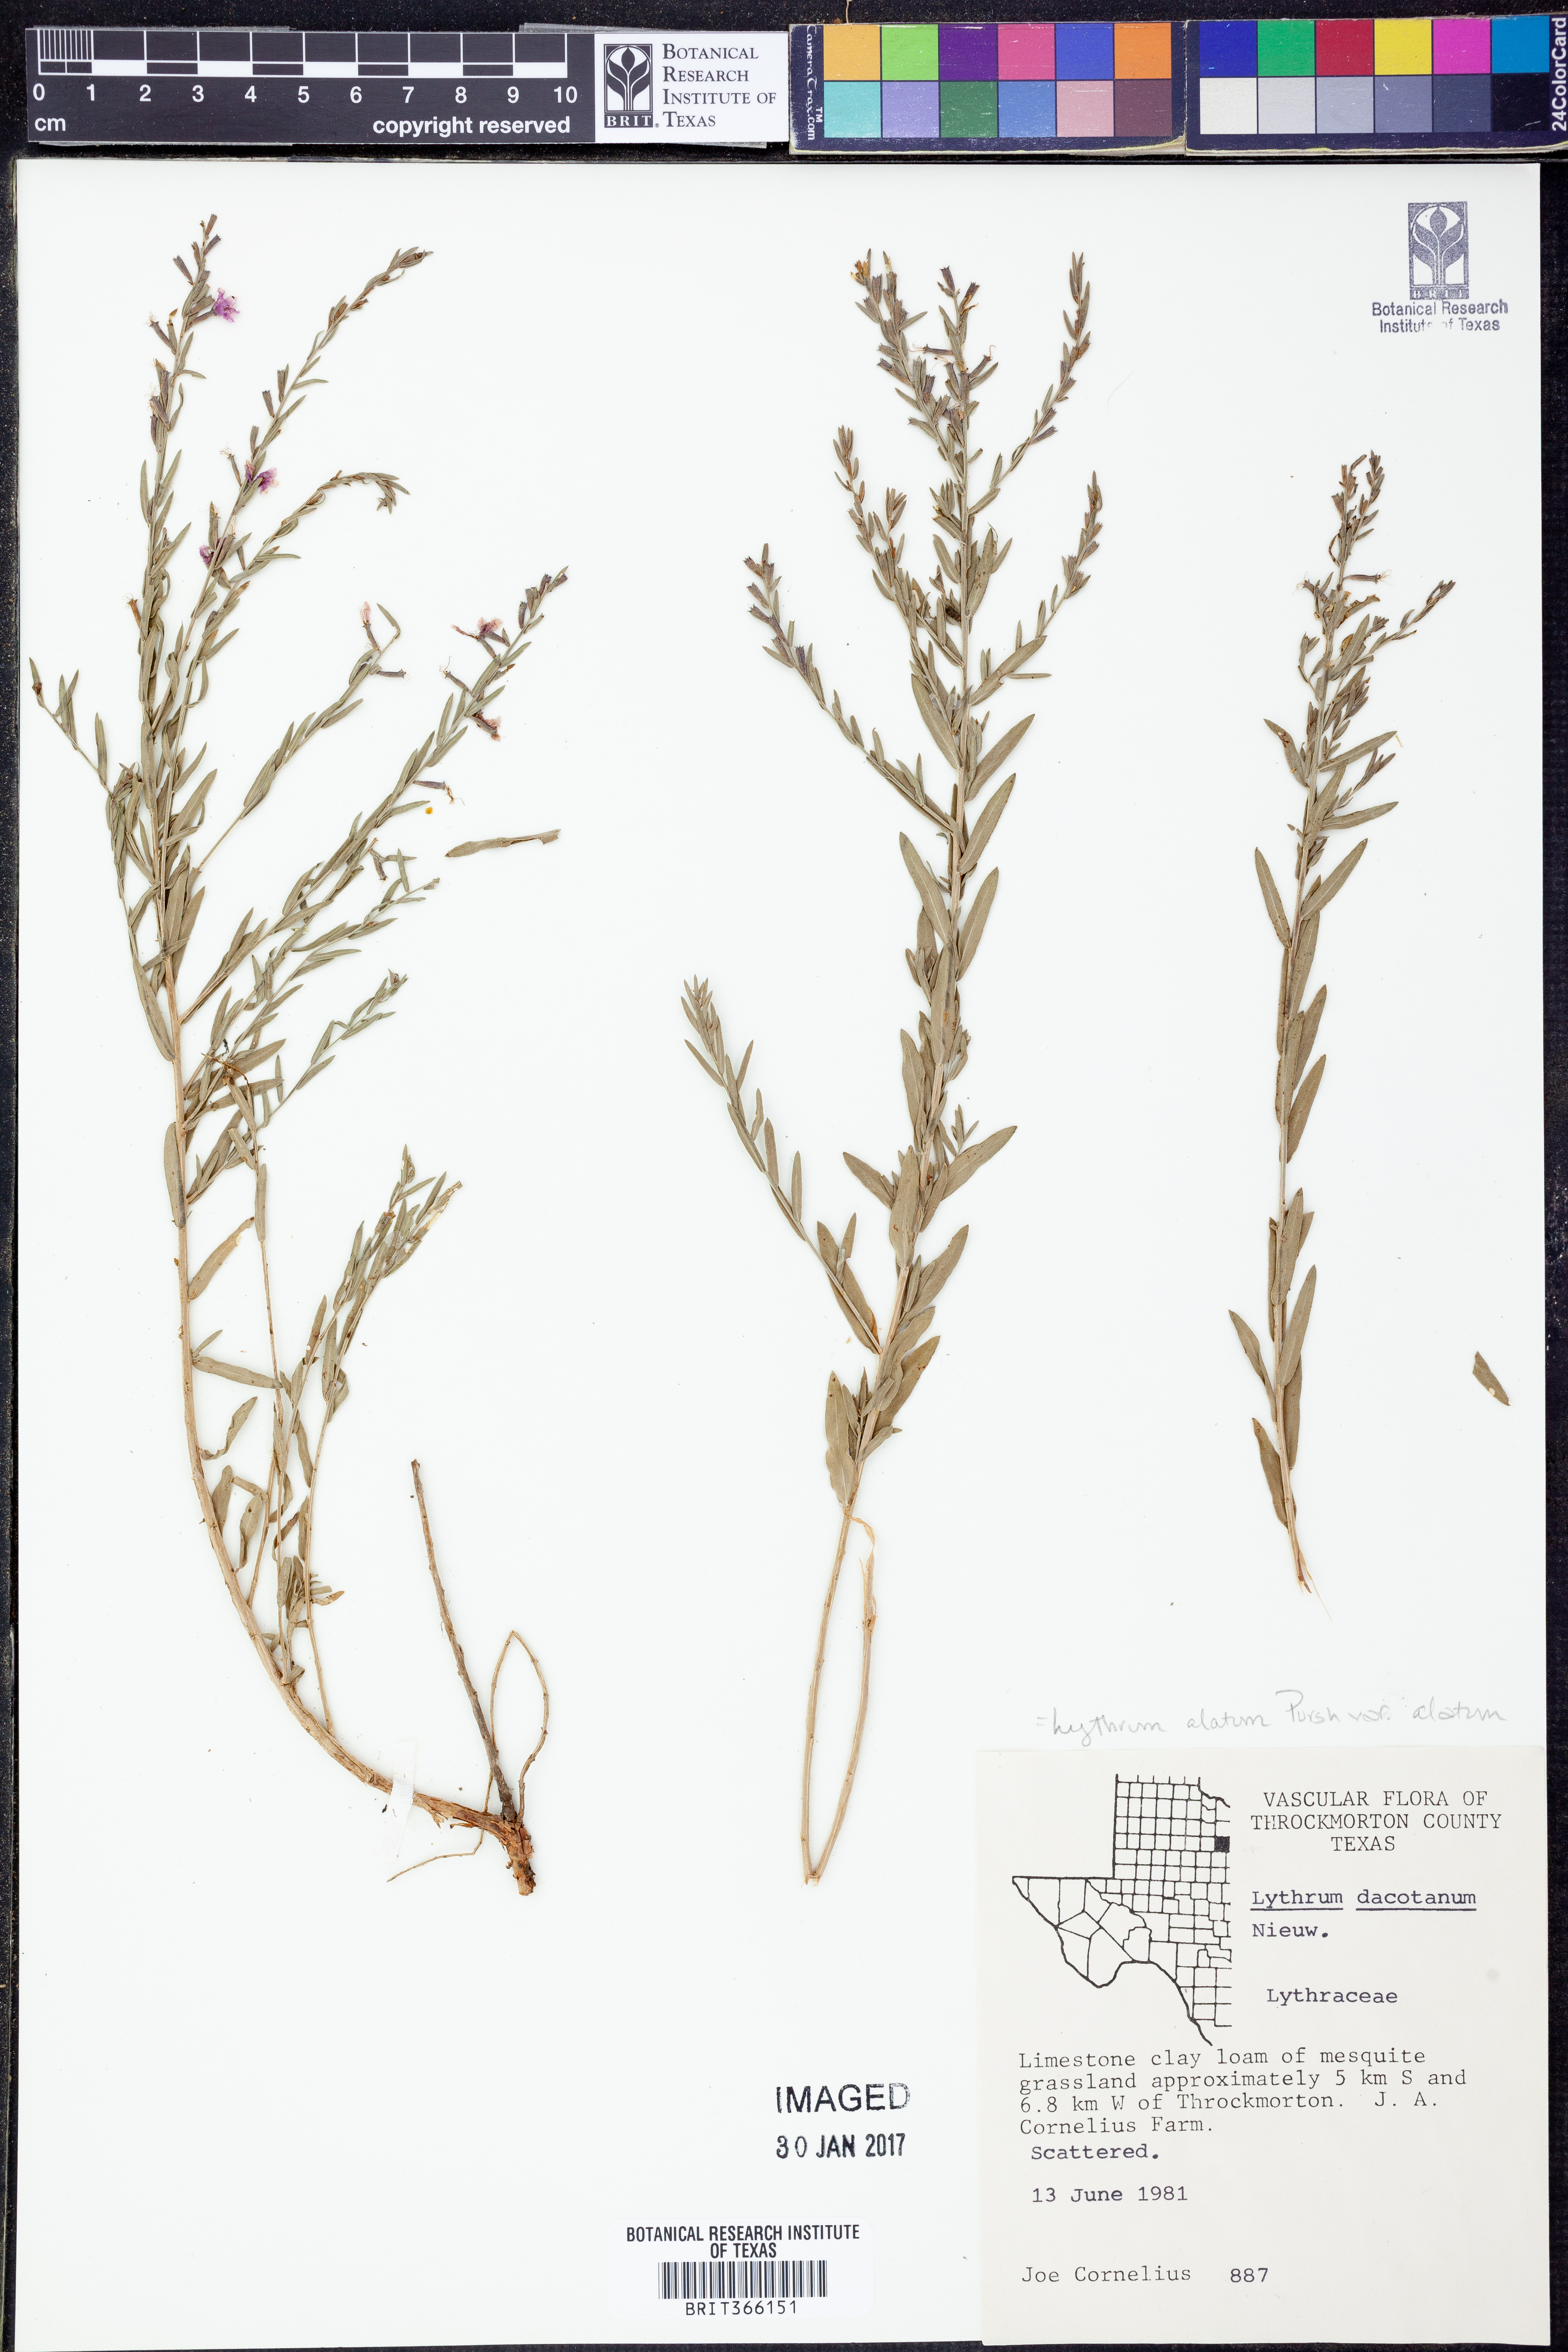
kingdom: Plantae
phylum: Tracheophyta
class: Magnoliopsida
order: Myrtales
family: Lythraceae
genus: Lythrum
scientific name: Lythrum alatum
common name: Winged loosestrife
